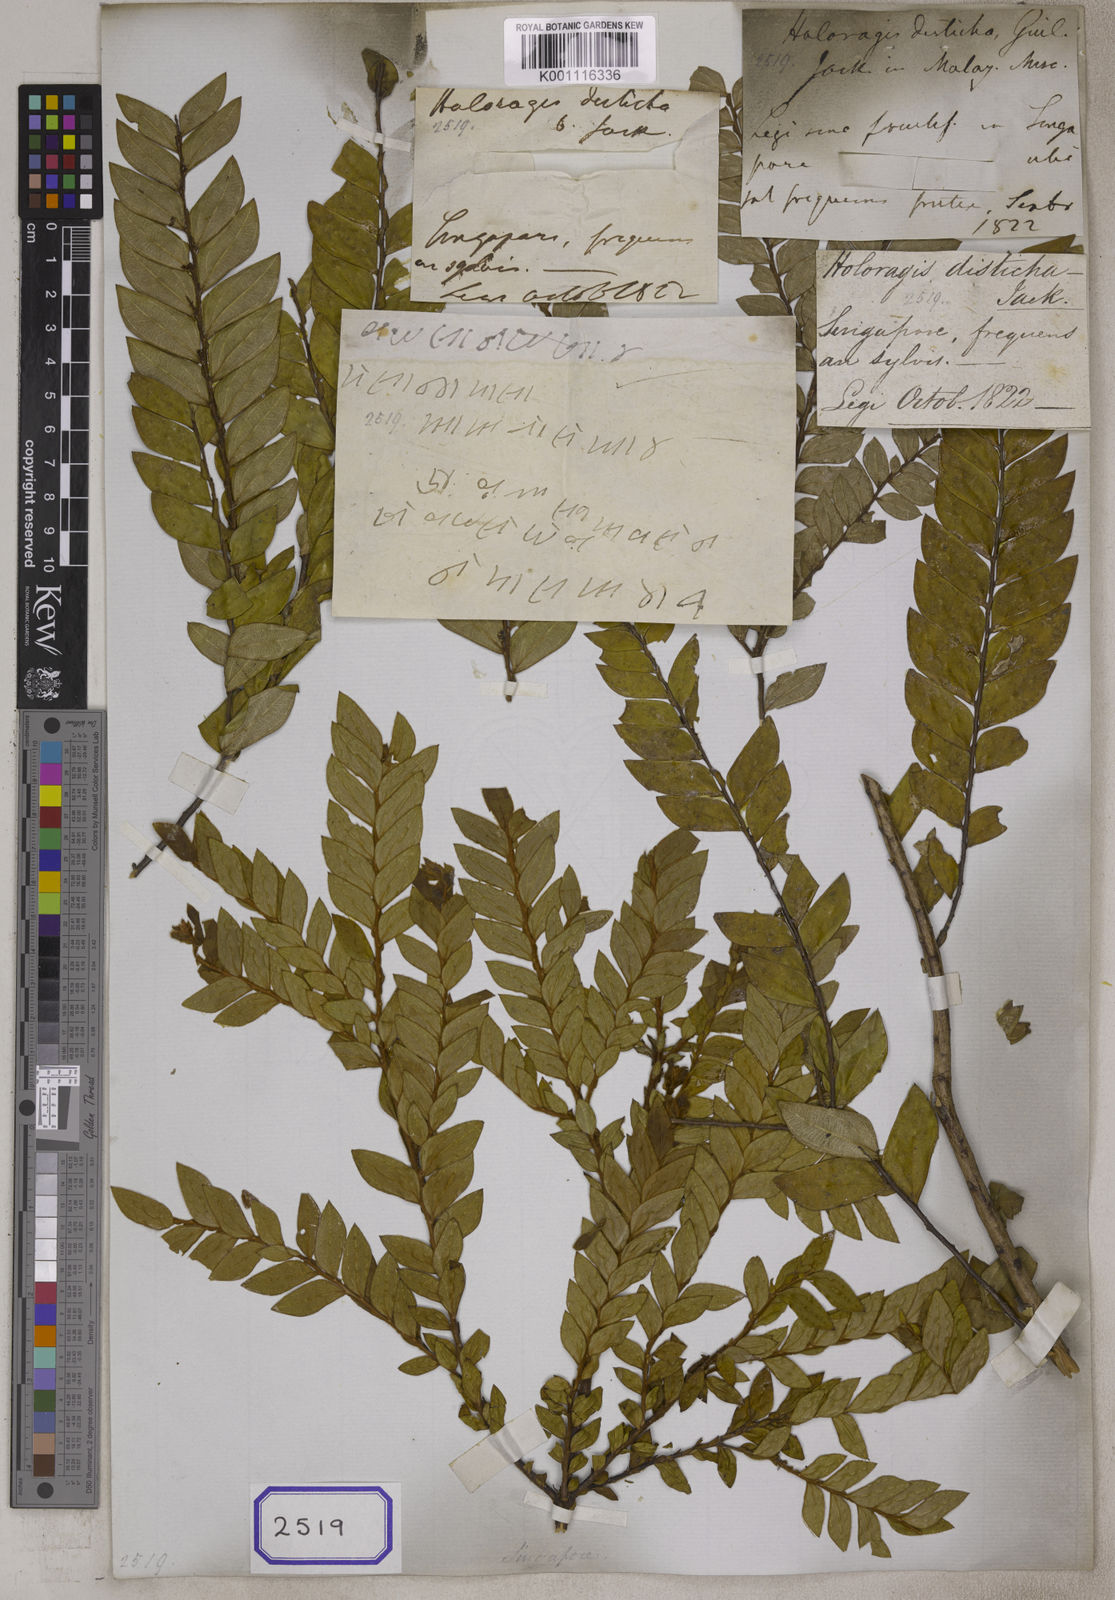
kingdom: Plantae
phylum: Tracheophyta
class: Magnoliopsida
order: Cucurbitales
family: Anisophylleaceae
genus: Anisophyllea
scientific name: Anisophyllea disticha
